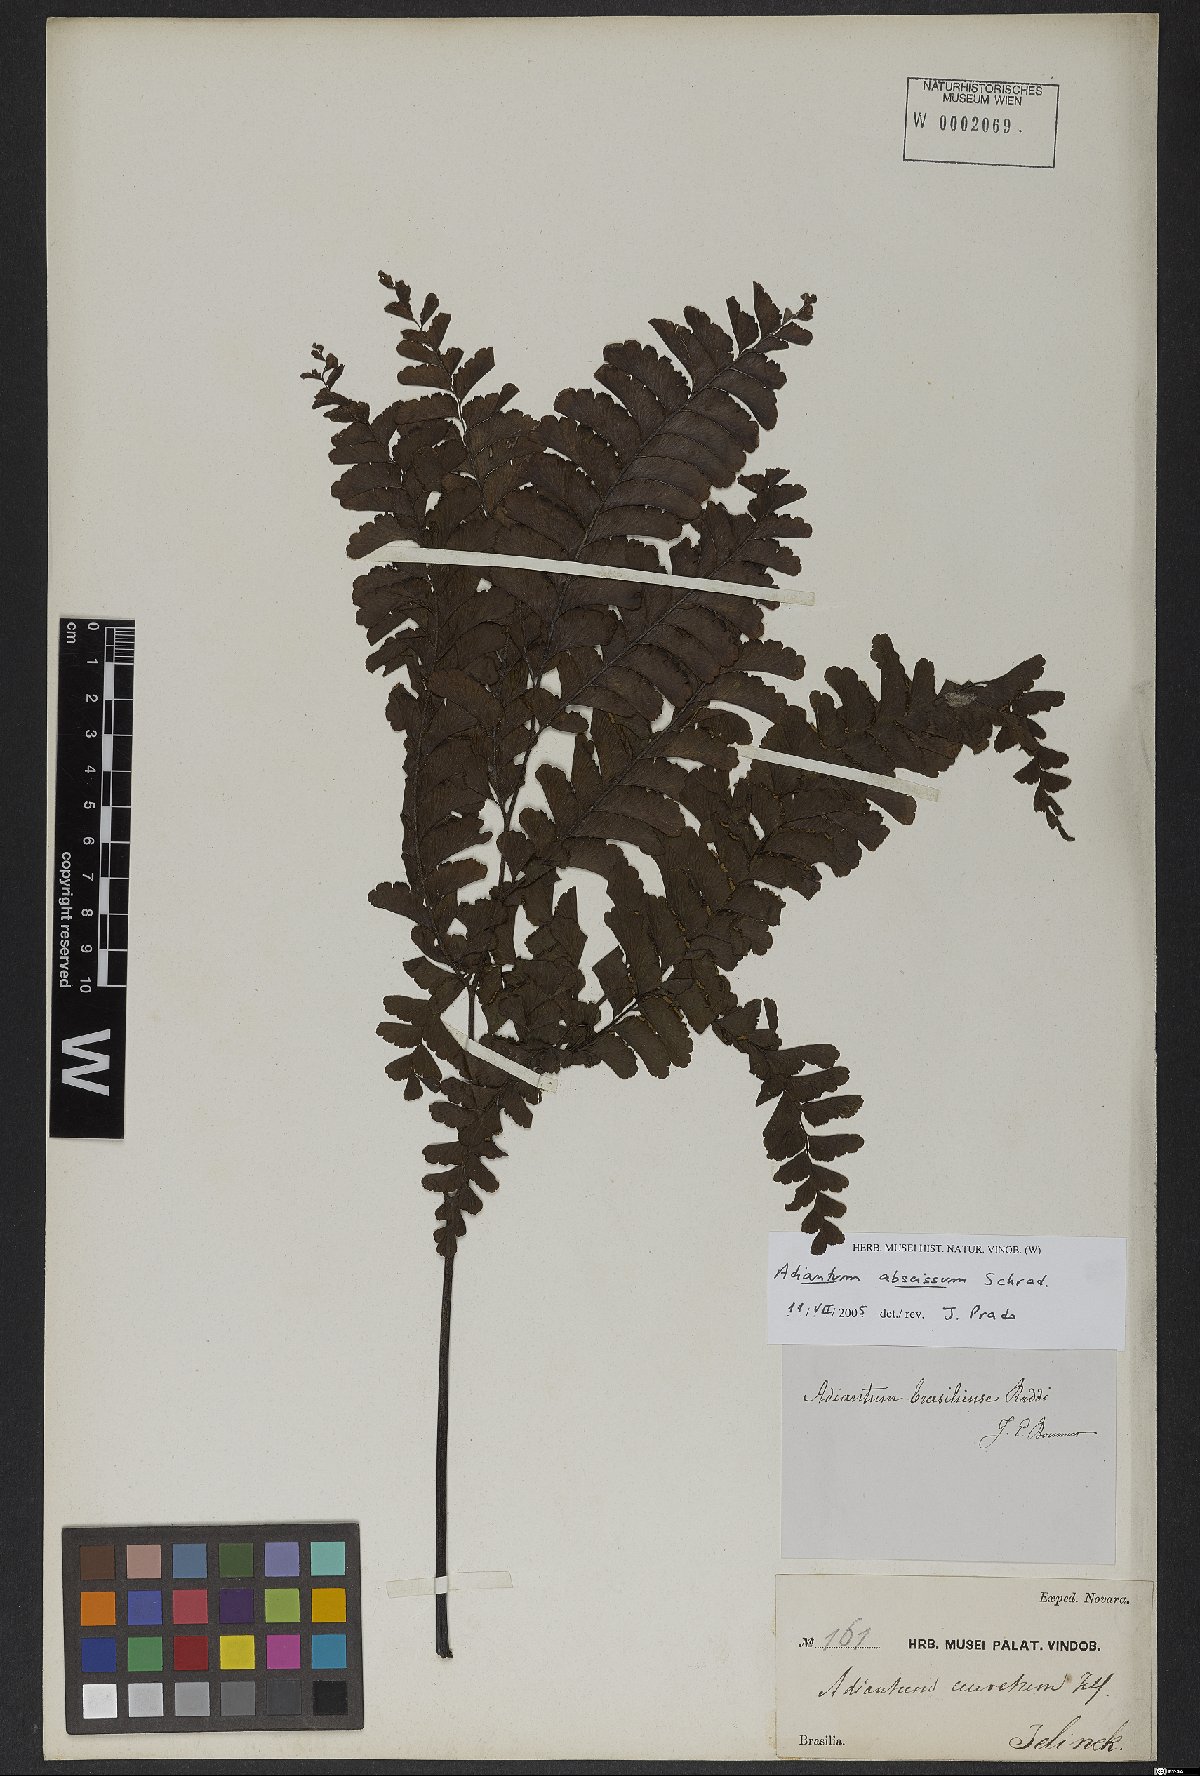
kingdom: Plantae
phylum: Tracheophyta
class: Polypodiopsida
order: Polypodiales
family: Pteridaceae
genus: Adiantum
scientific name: Adiantum abscissum
